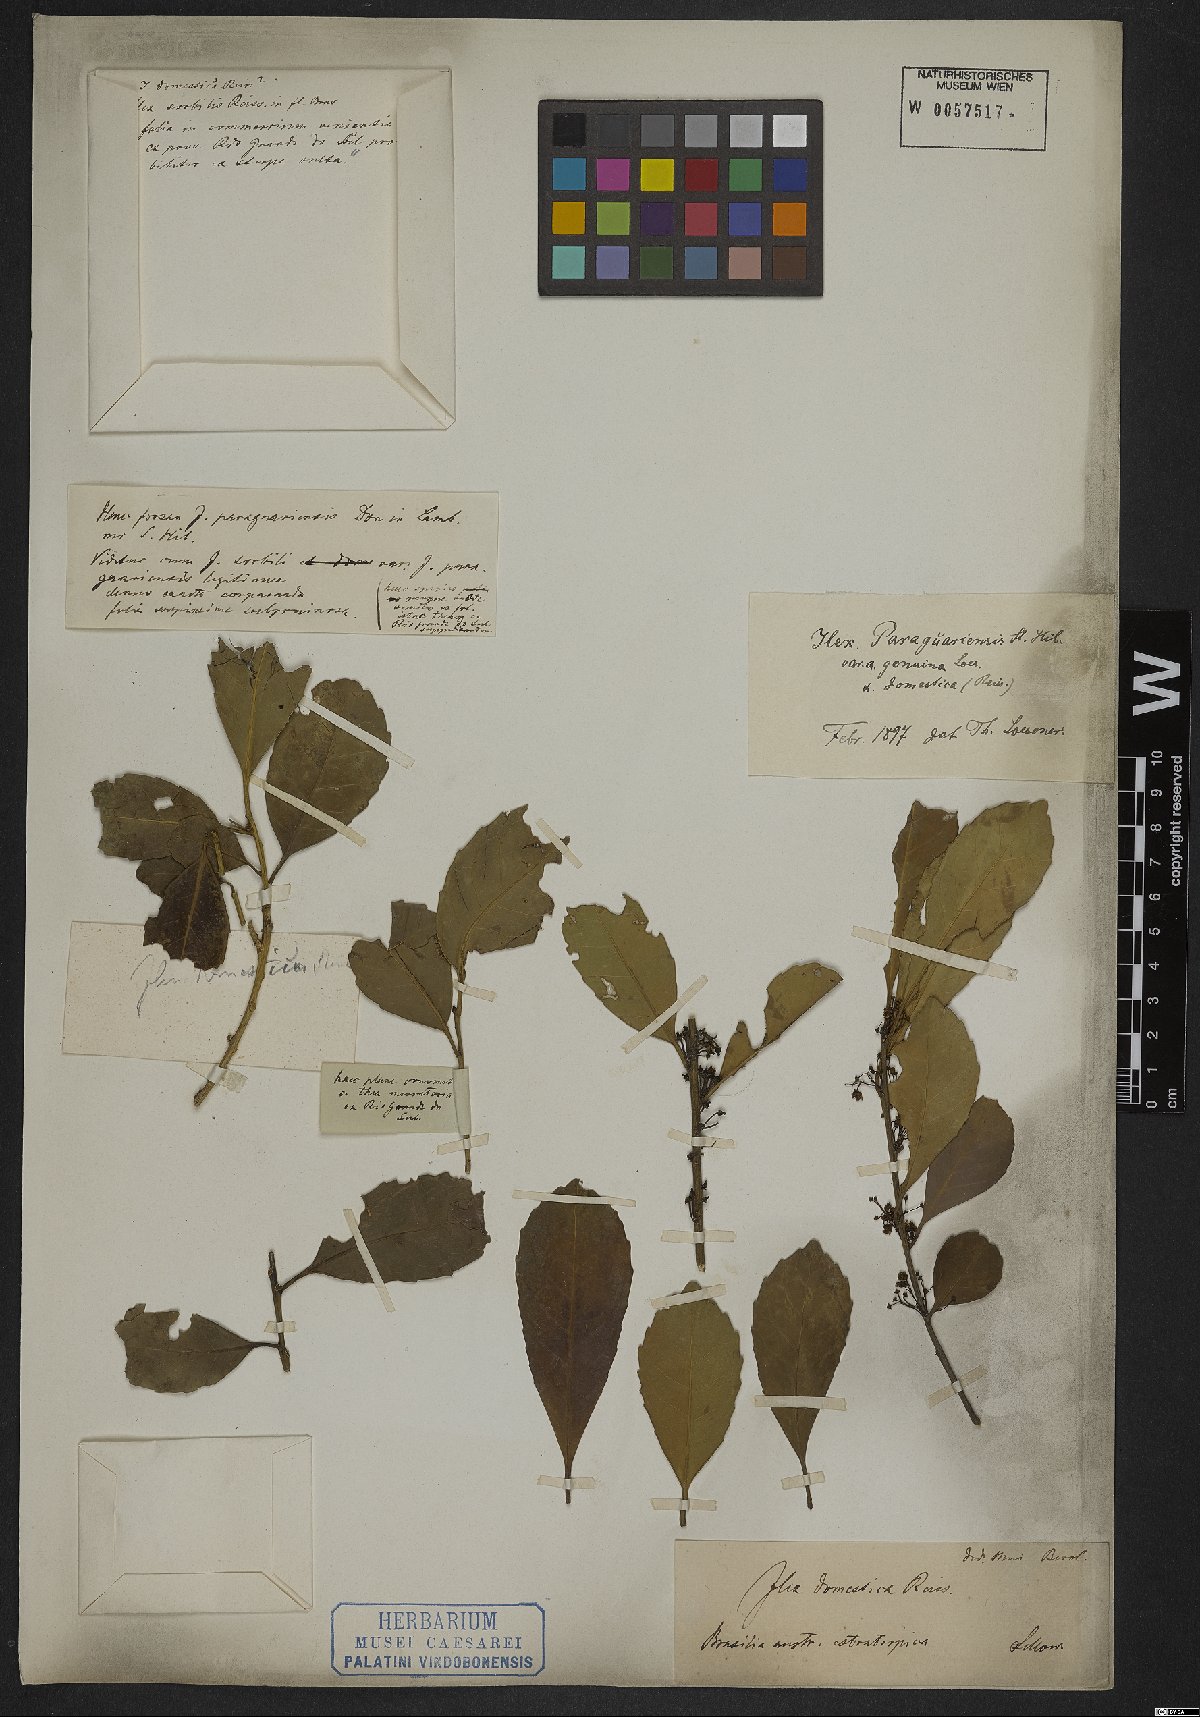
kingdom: Plantae
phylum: Tracheophyta
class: Magnoliopsida
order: Aquifoliales
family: Aquifoliaceae
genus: Ilex
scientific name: Ilex paraguariensis
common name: Paraguay tea
